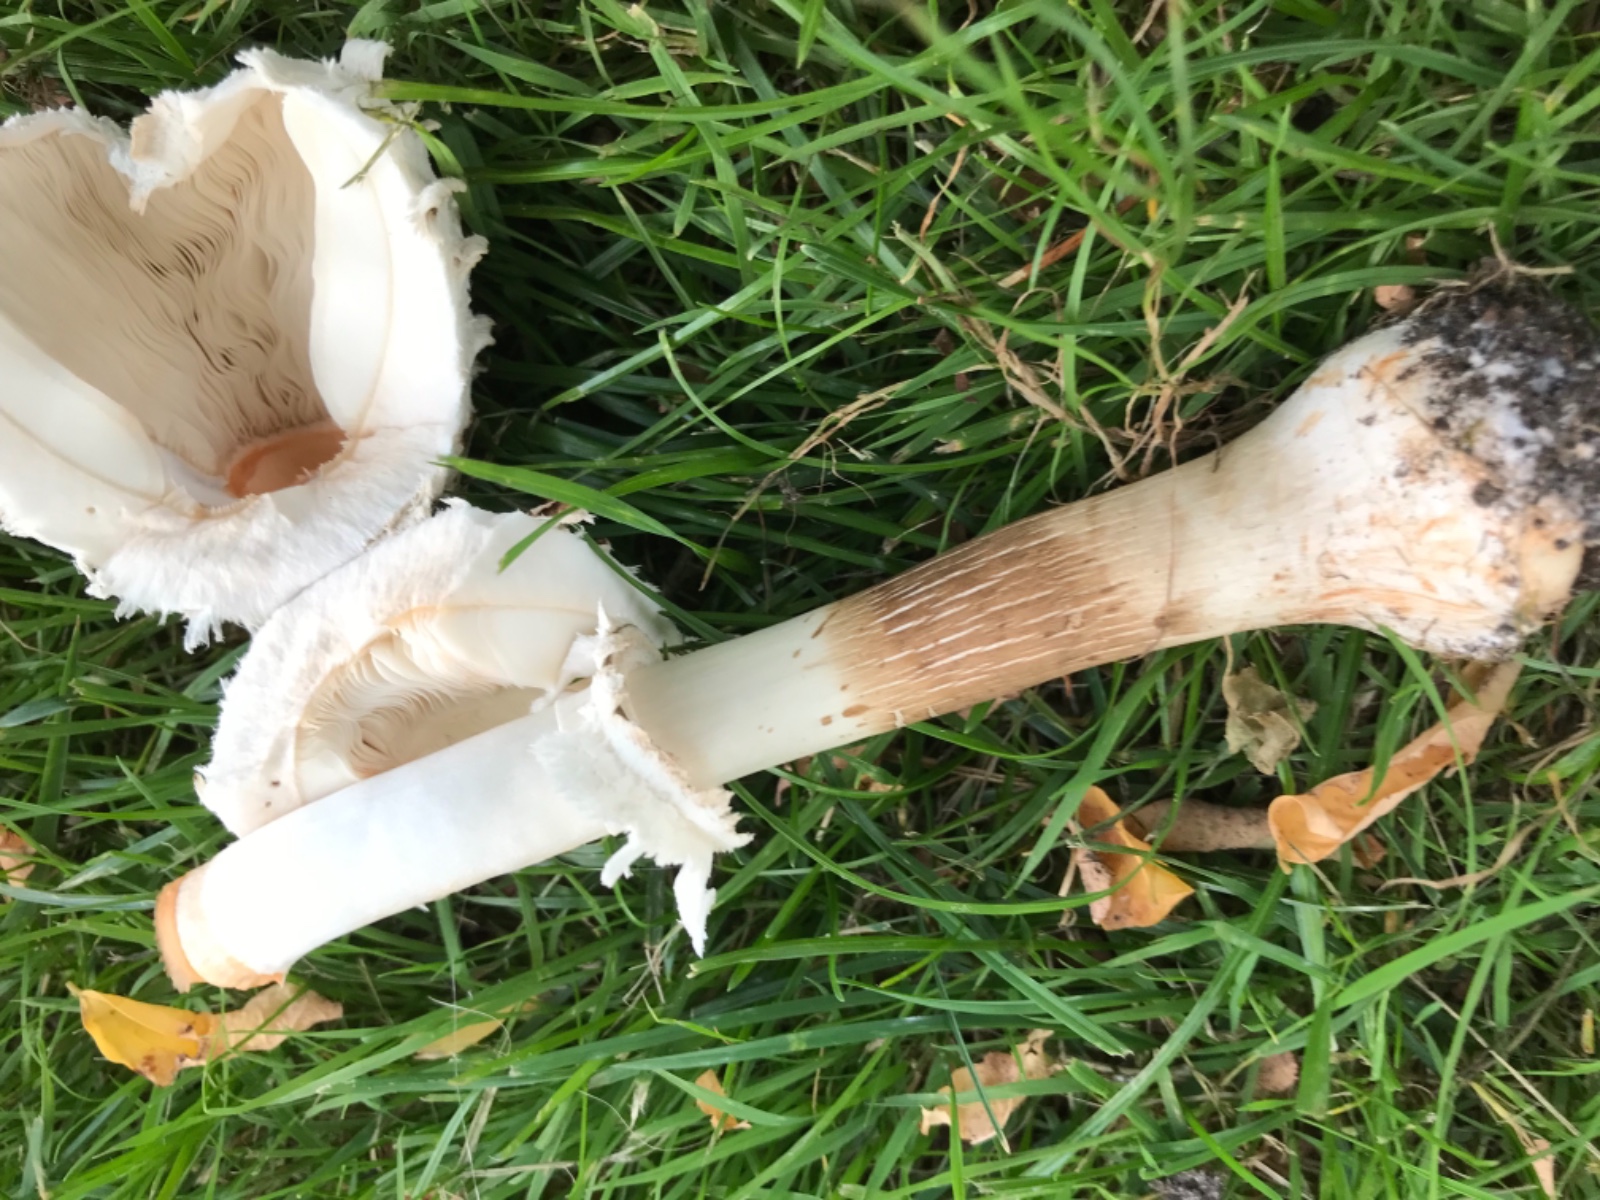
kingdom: Fungi
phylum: Basidiomycota
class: Agaricomycetes
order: Agaricales
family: Agaricaceae
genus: Chlorophyllum
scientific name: Chlorophyllum rhacodes
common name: ægte rabarberhat
